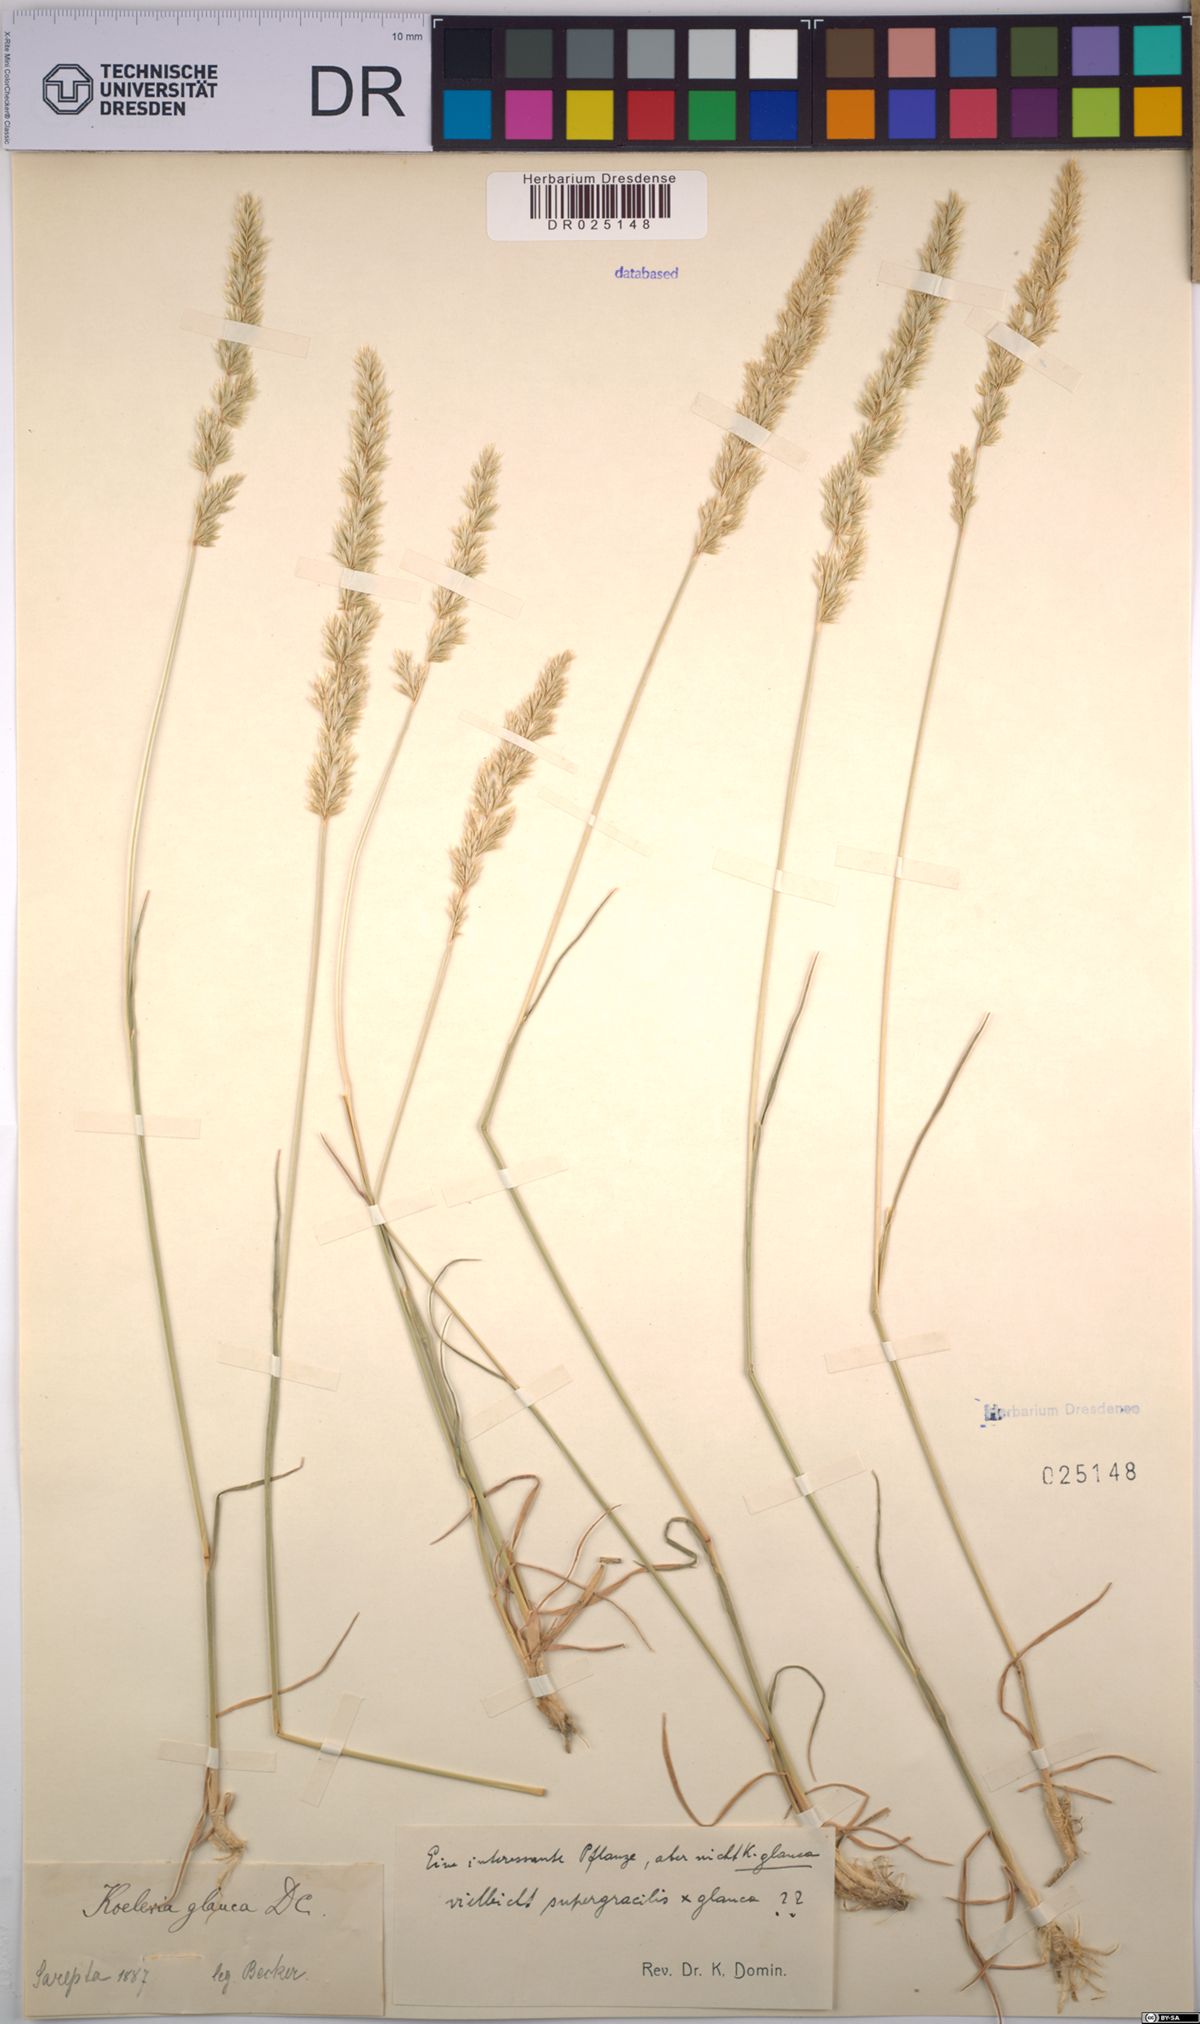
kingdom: Plantae
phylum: Tracheophyta
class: Liliopsida
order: Poales
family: Poaceae
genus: Koeleria
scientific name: Koeleria glauca
